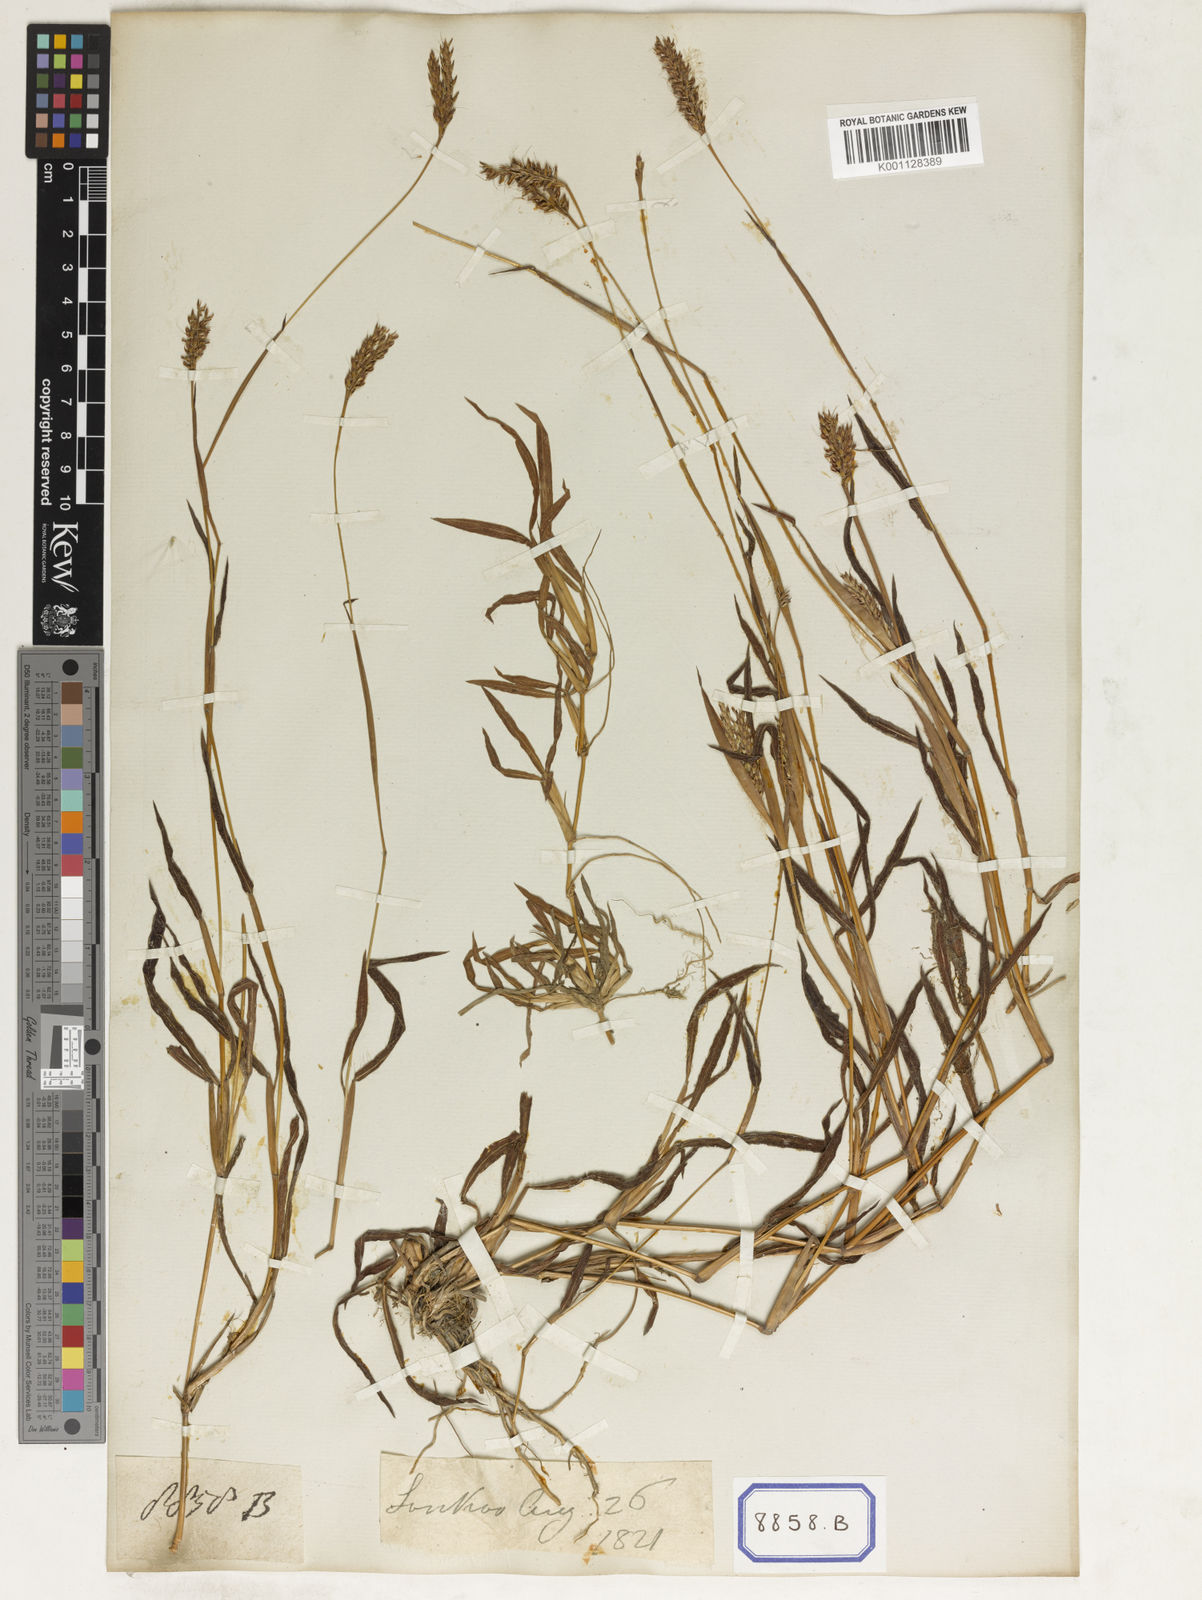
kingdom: Plantae
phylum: Tracheophyta
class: Liliopsida
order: Poales
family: Poaceae
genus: Ischaemum
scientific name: Ischaemum ciliare
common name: Grass
